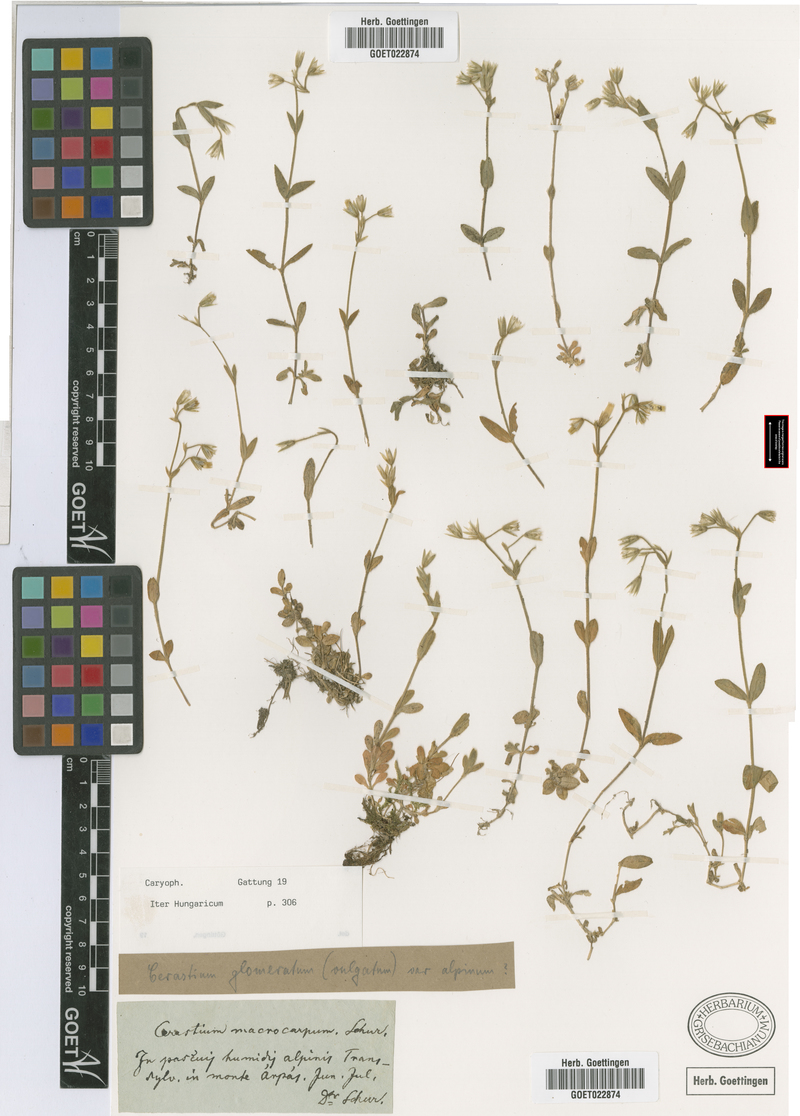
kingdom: Plantae
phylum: Tracheophyta
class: Magnoliopsida
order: Caryophyllales
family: Caryophyllaceae
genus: Cerastium
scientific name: Cerastium lucorum
